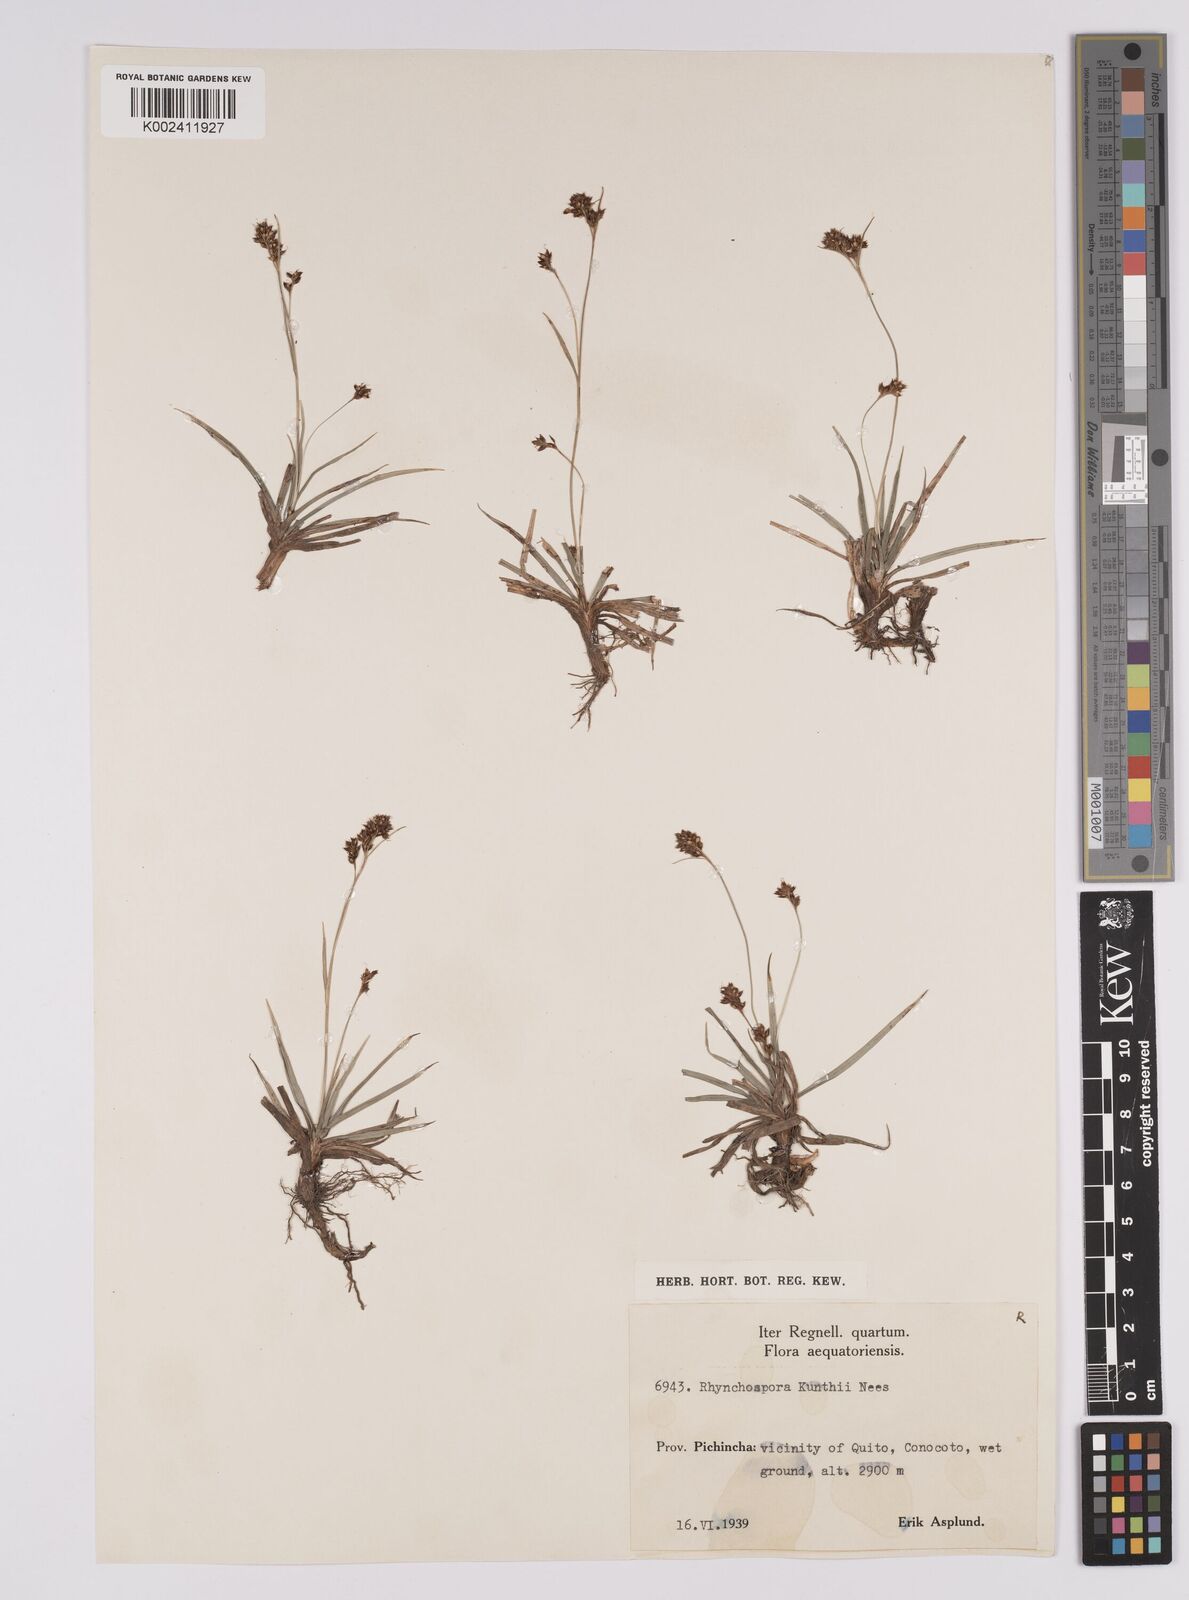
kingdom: Plantae
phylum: Tracheophyta
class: Liliopsida
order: Poales
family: Cyperaceae
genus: Rhynchospora
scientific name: Rhynchospora kunthii
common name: Kunth's beaksedge
